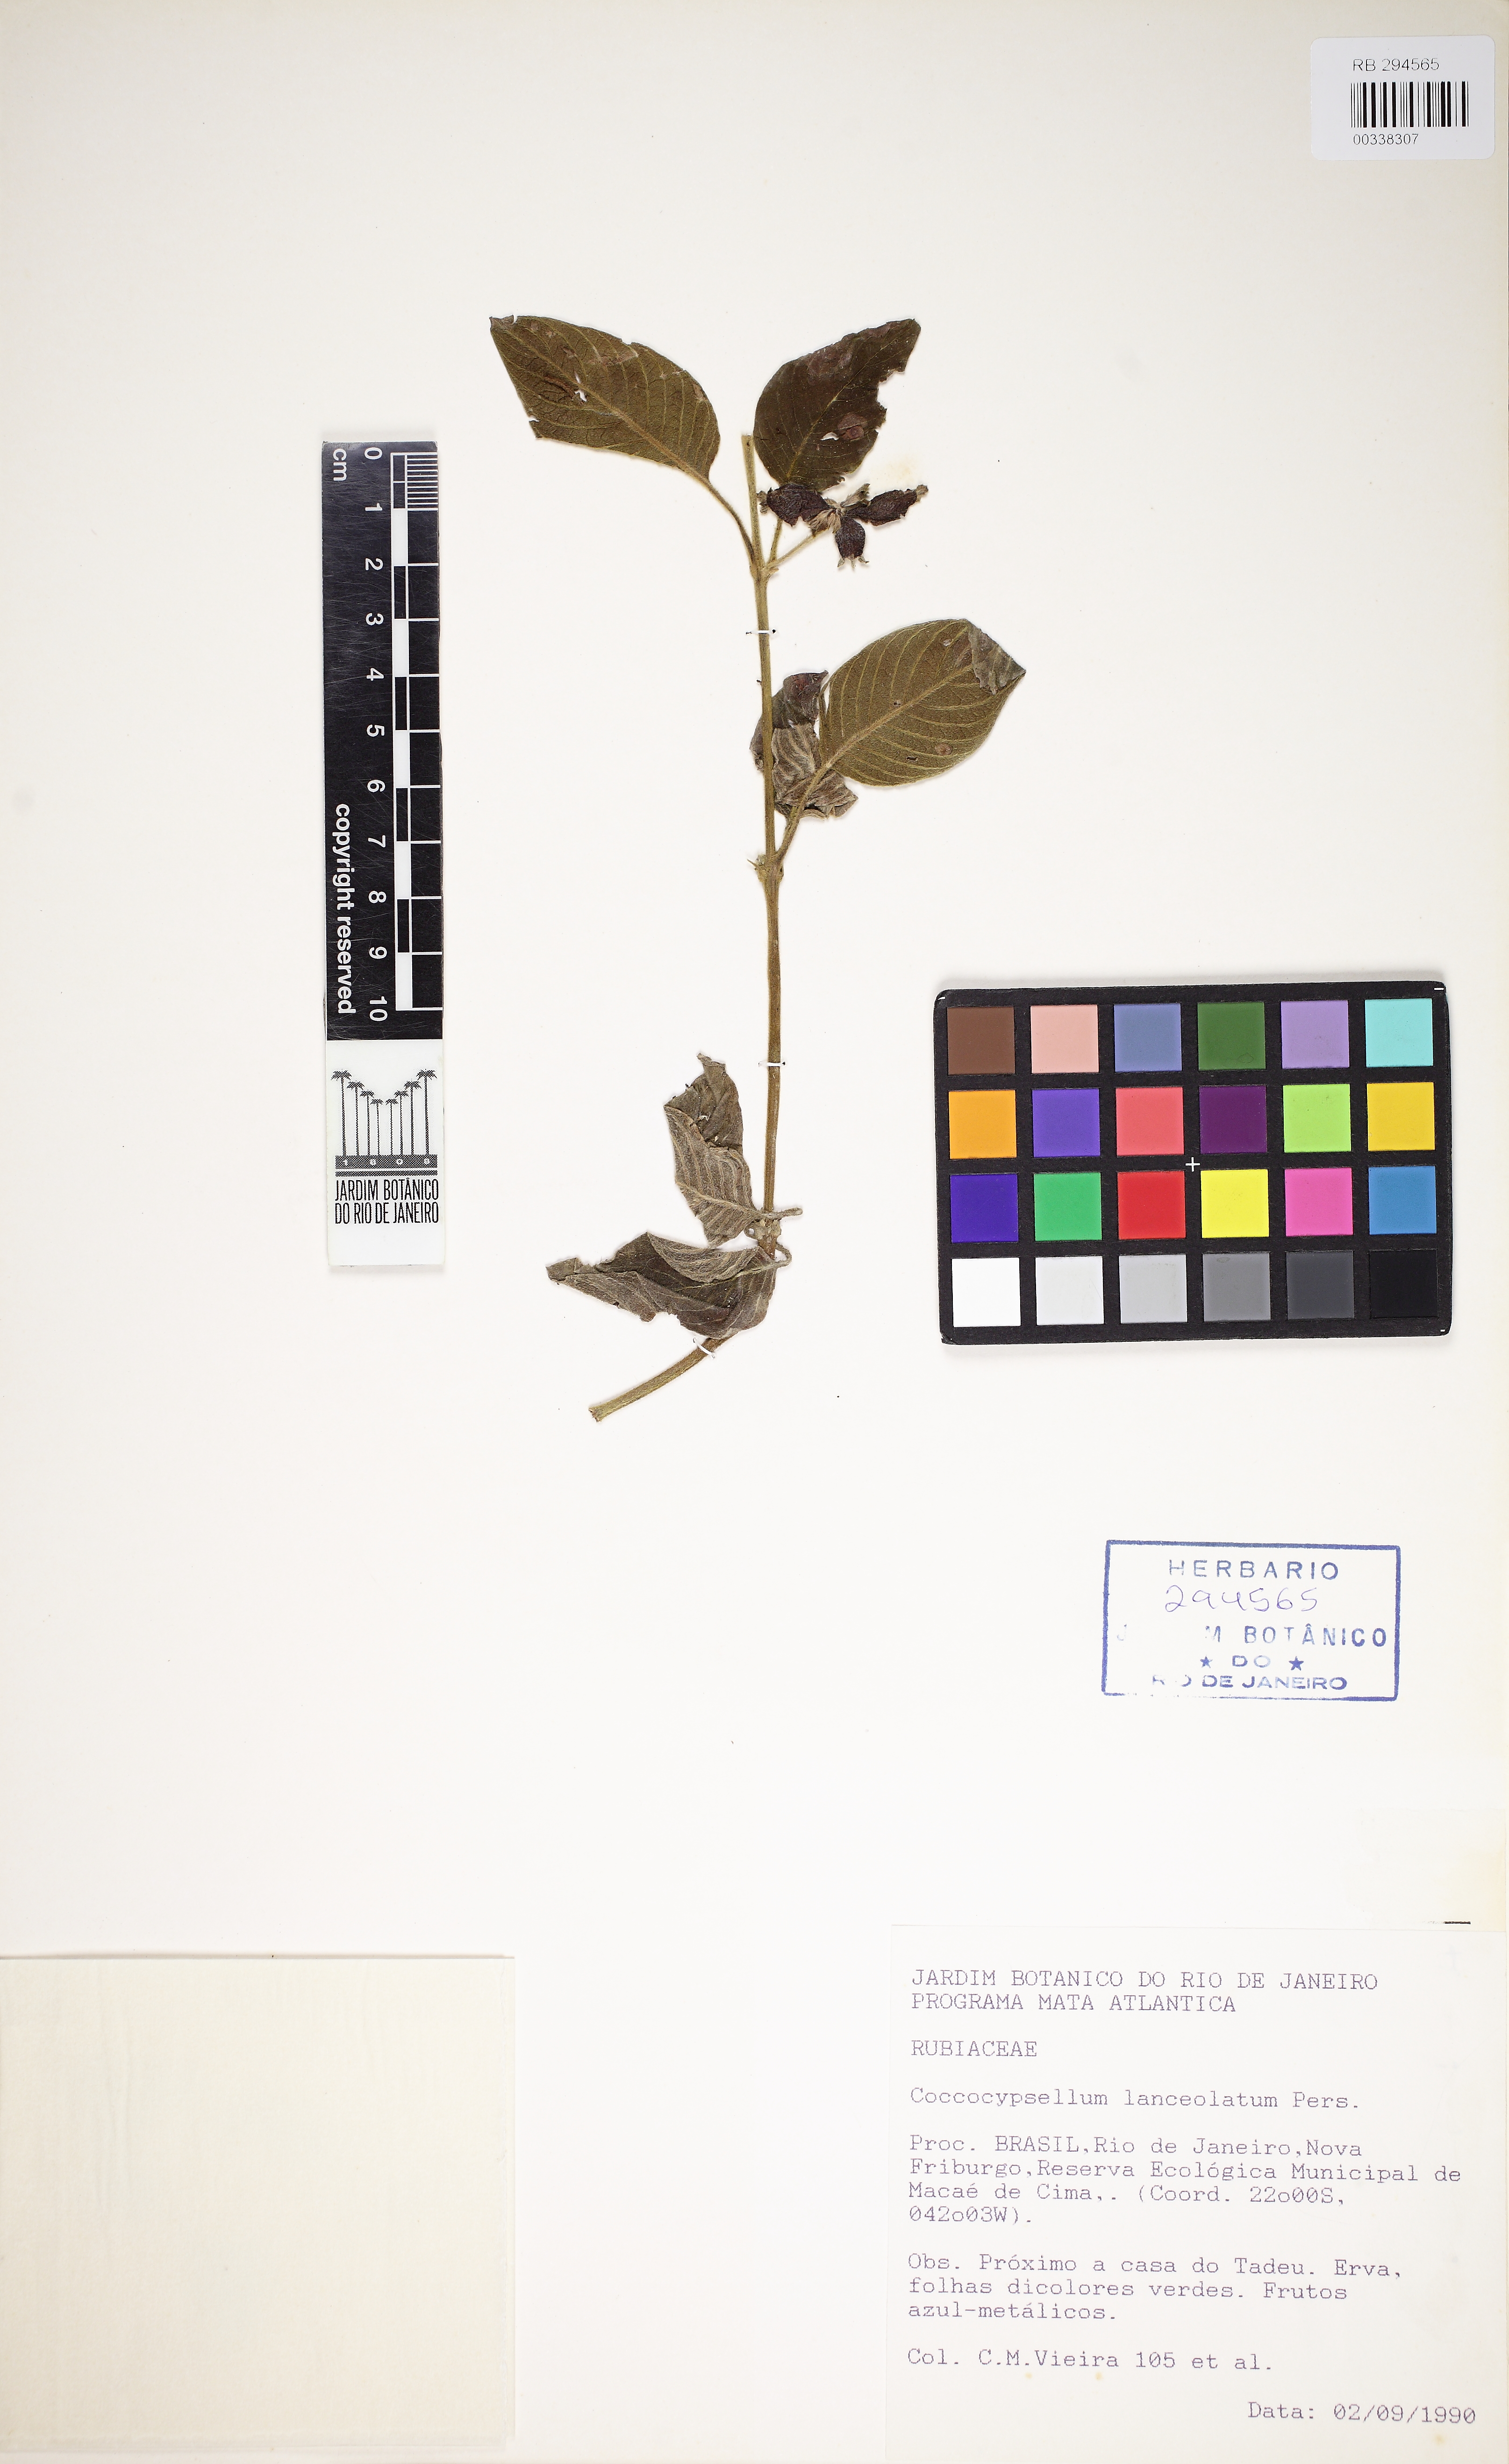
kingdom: Plantae
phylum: Tracheophyta
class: Magnoliopsida
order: Gentianales
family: Rubiaceae
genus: Coccocypselum
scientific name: Coccocypselum lanceolatum
